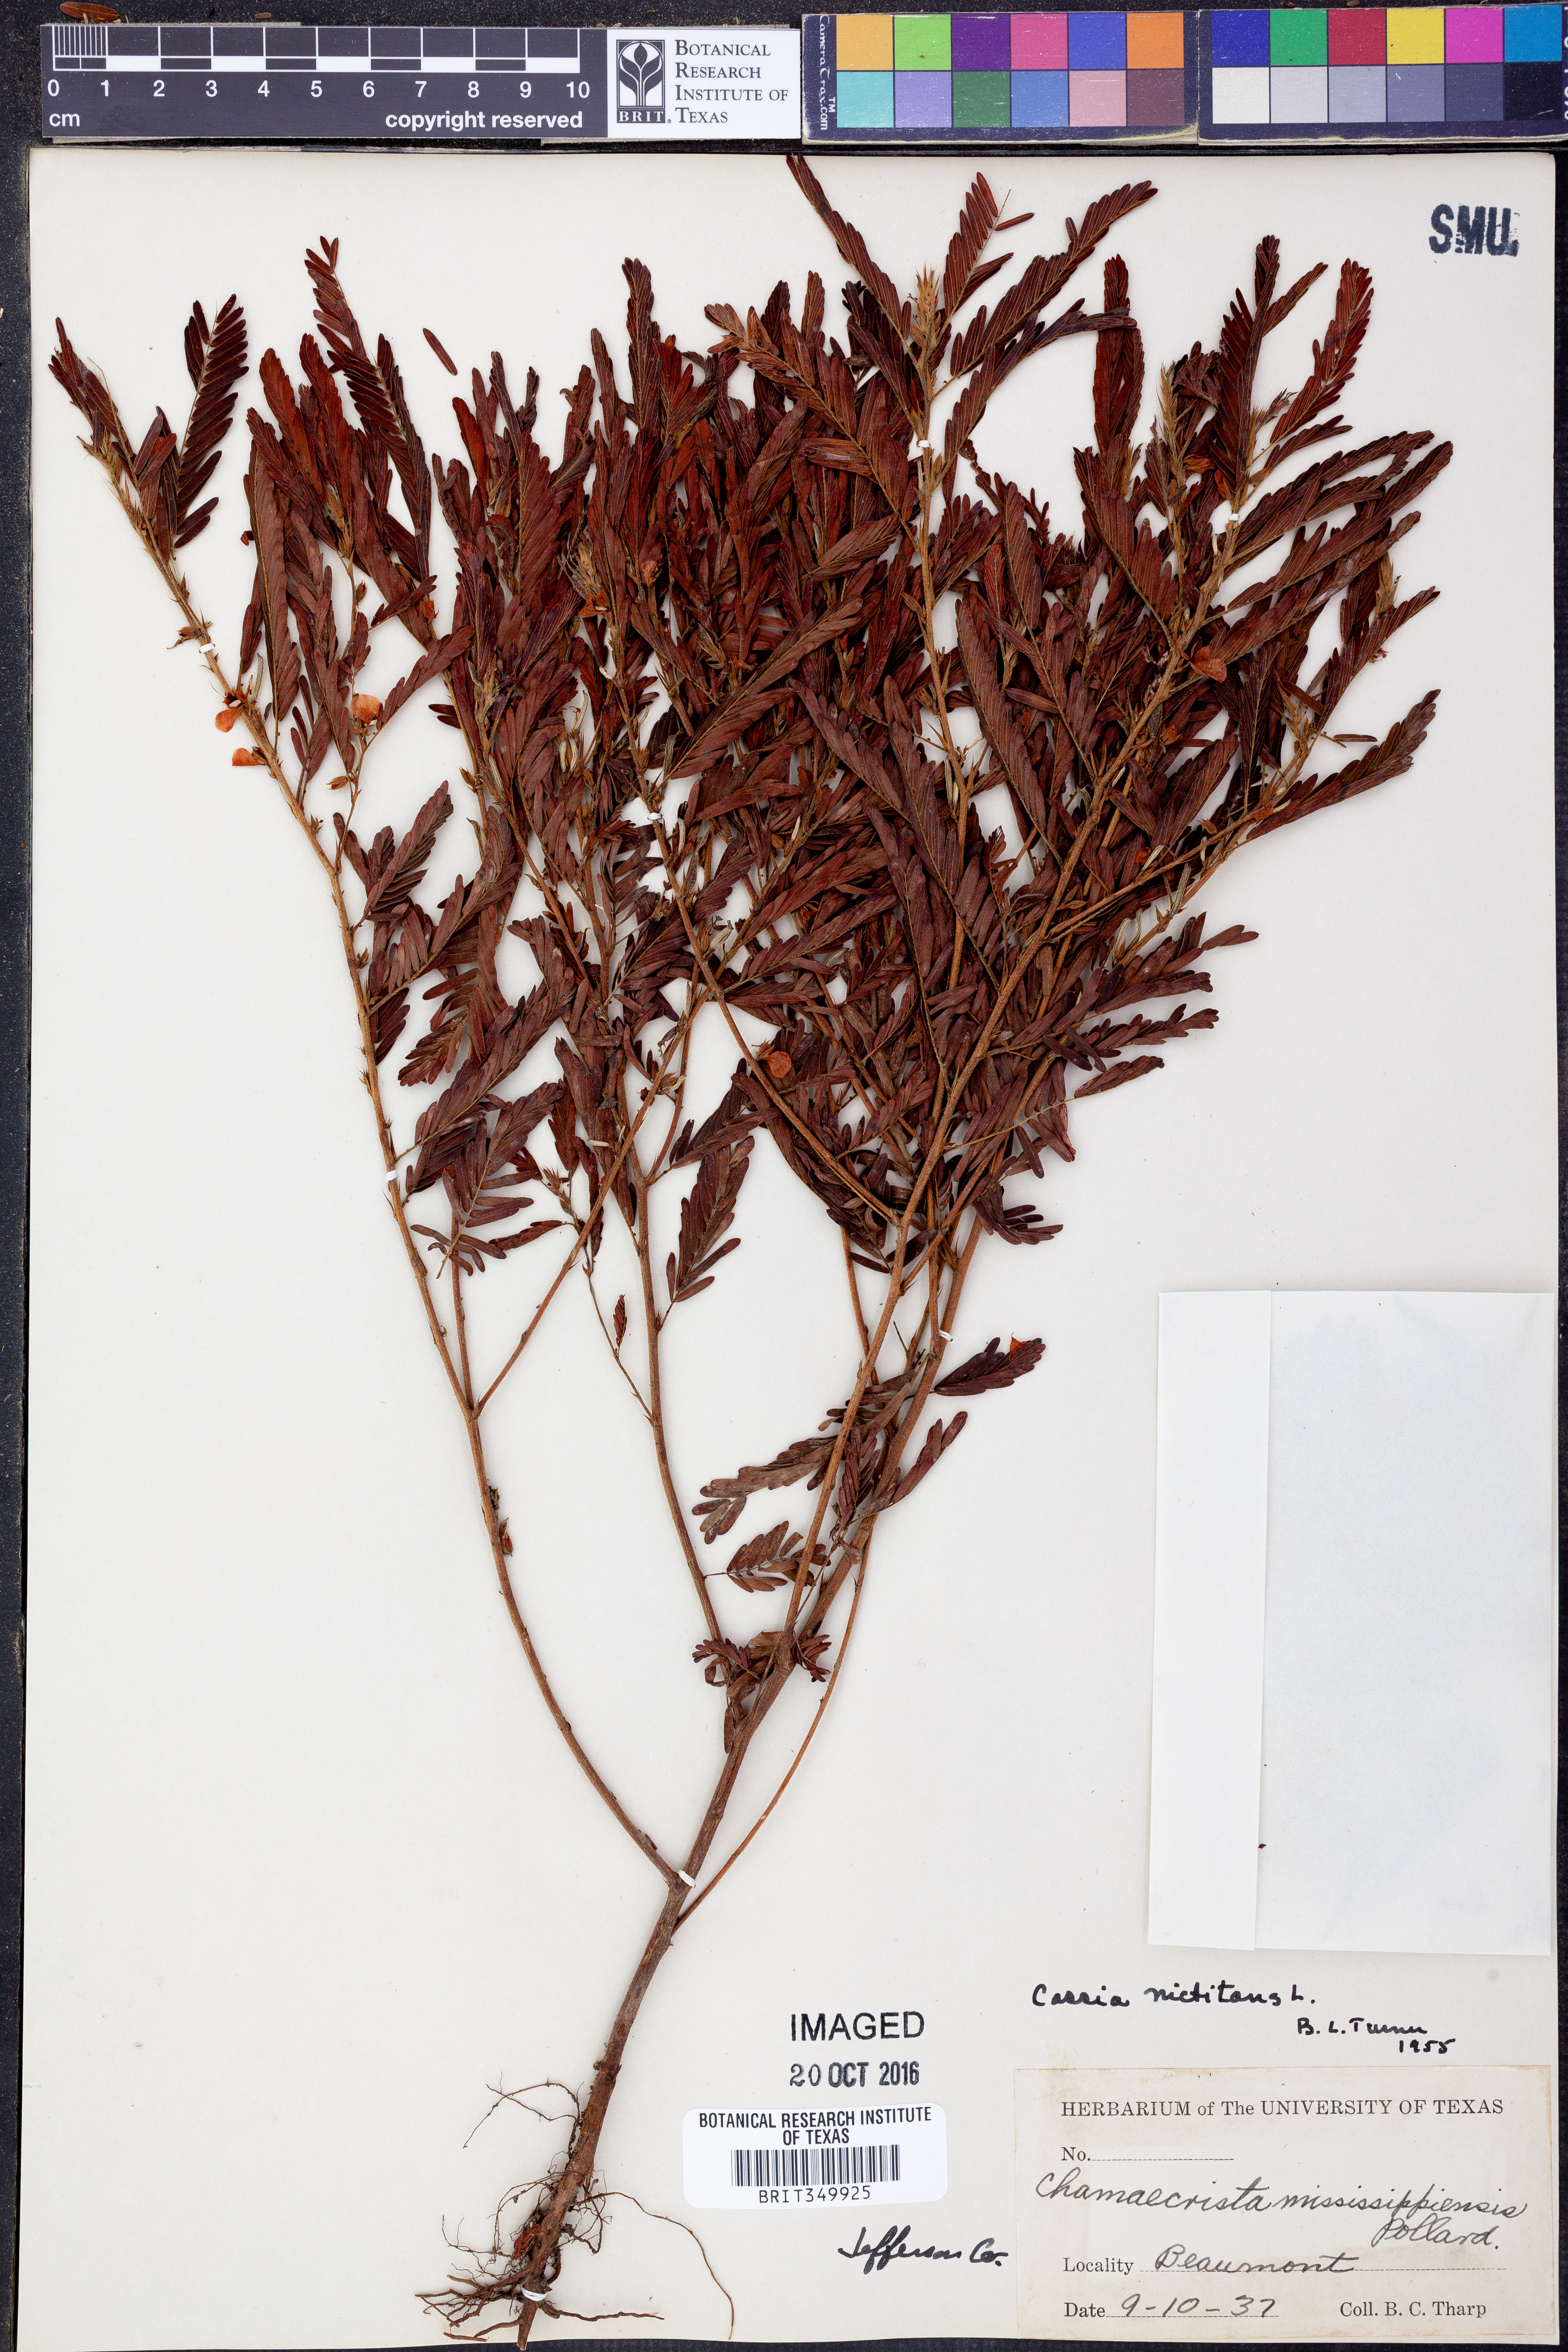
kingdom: Plantae
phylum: Tracheophyta
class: Magnoliopsida
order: Fabales
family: Fabaceae
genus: Chamaecrista
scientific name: Chamaecrista nictitans
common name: Sensitive cassia
